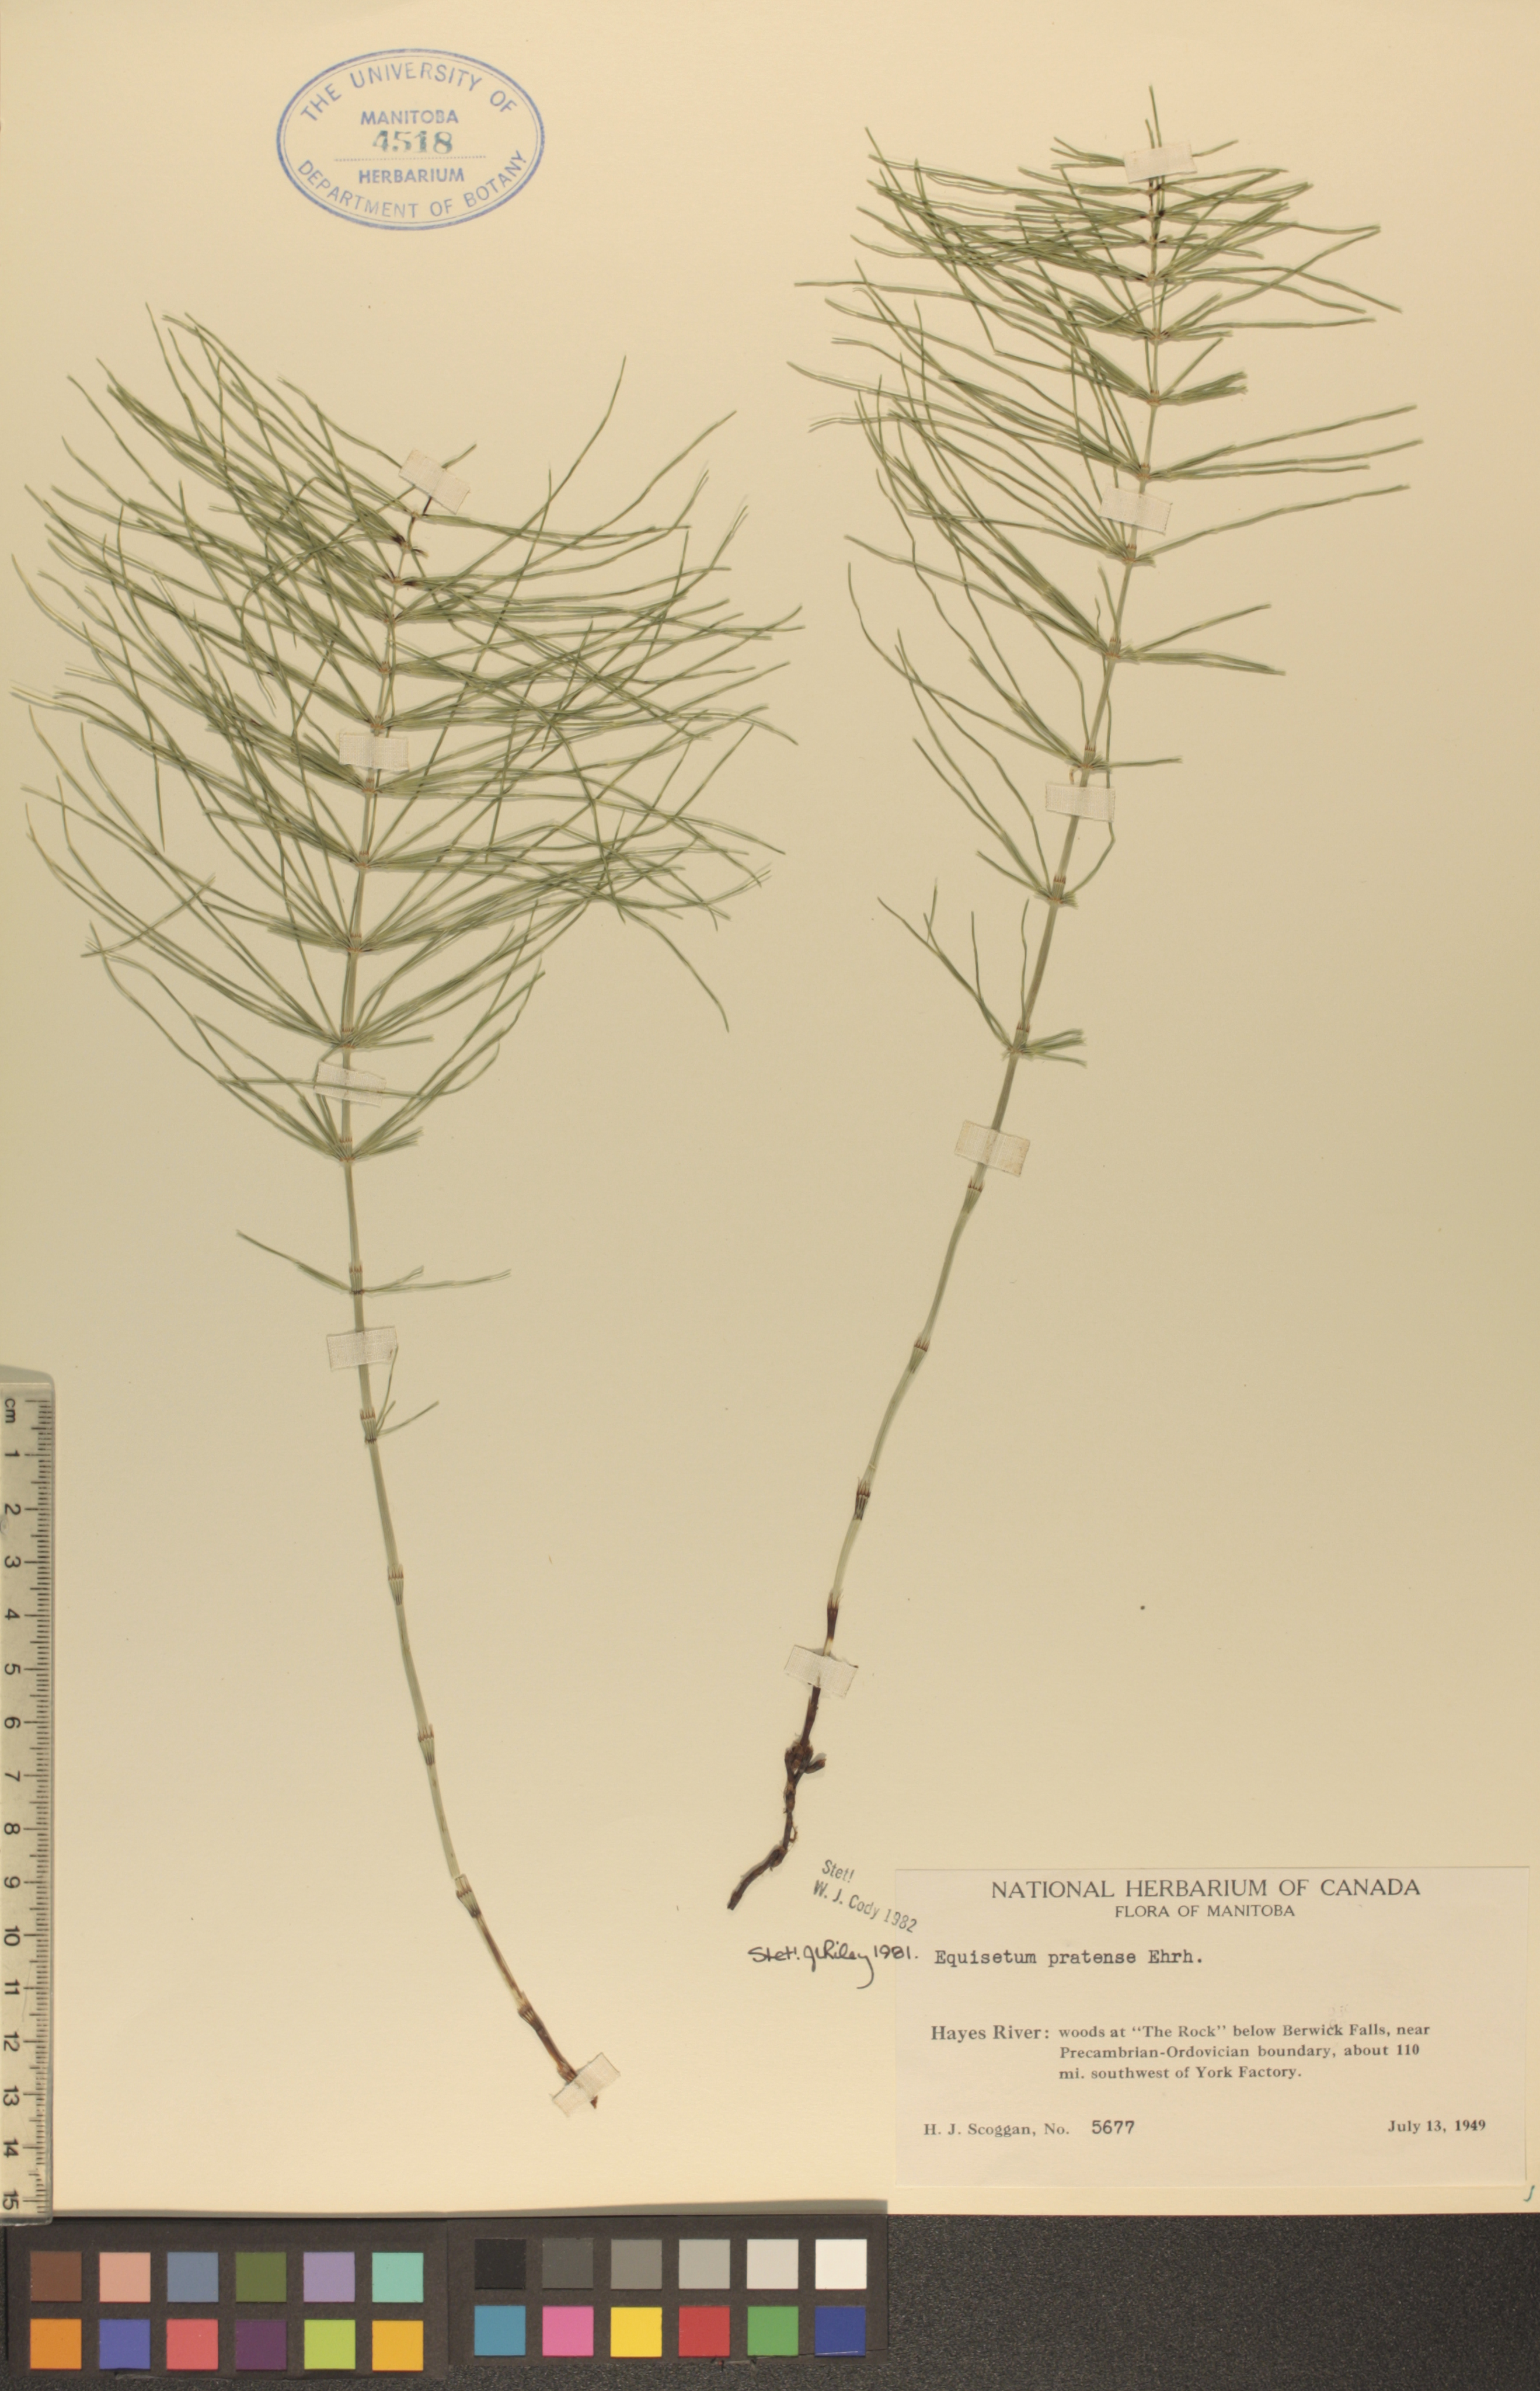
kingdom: Plantae
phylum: Tracheophyta
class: Polypodiopsida
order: Equisetales
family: Equisetaceae
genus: Equisetum
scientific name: Equisetum pratense
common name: Meadow horsetail
